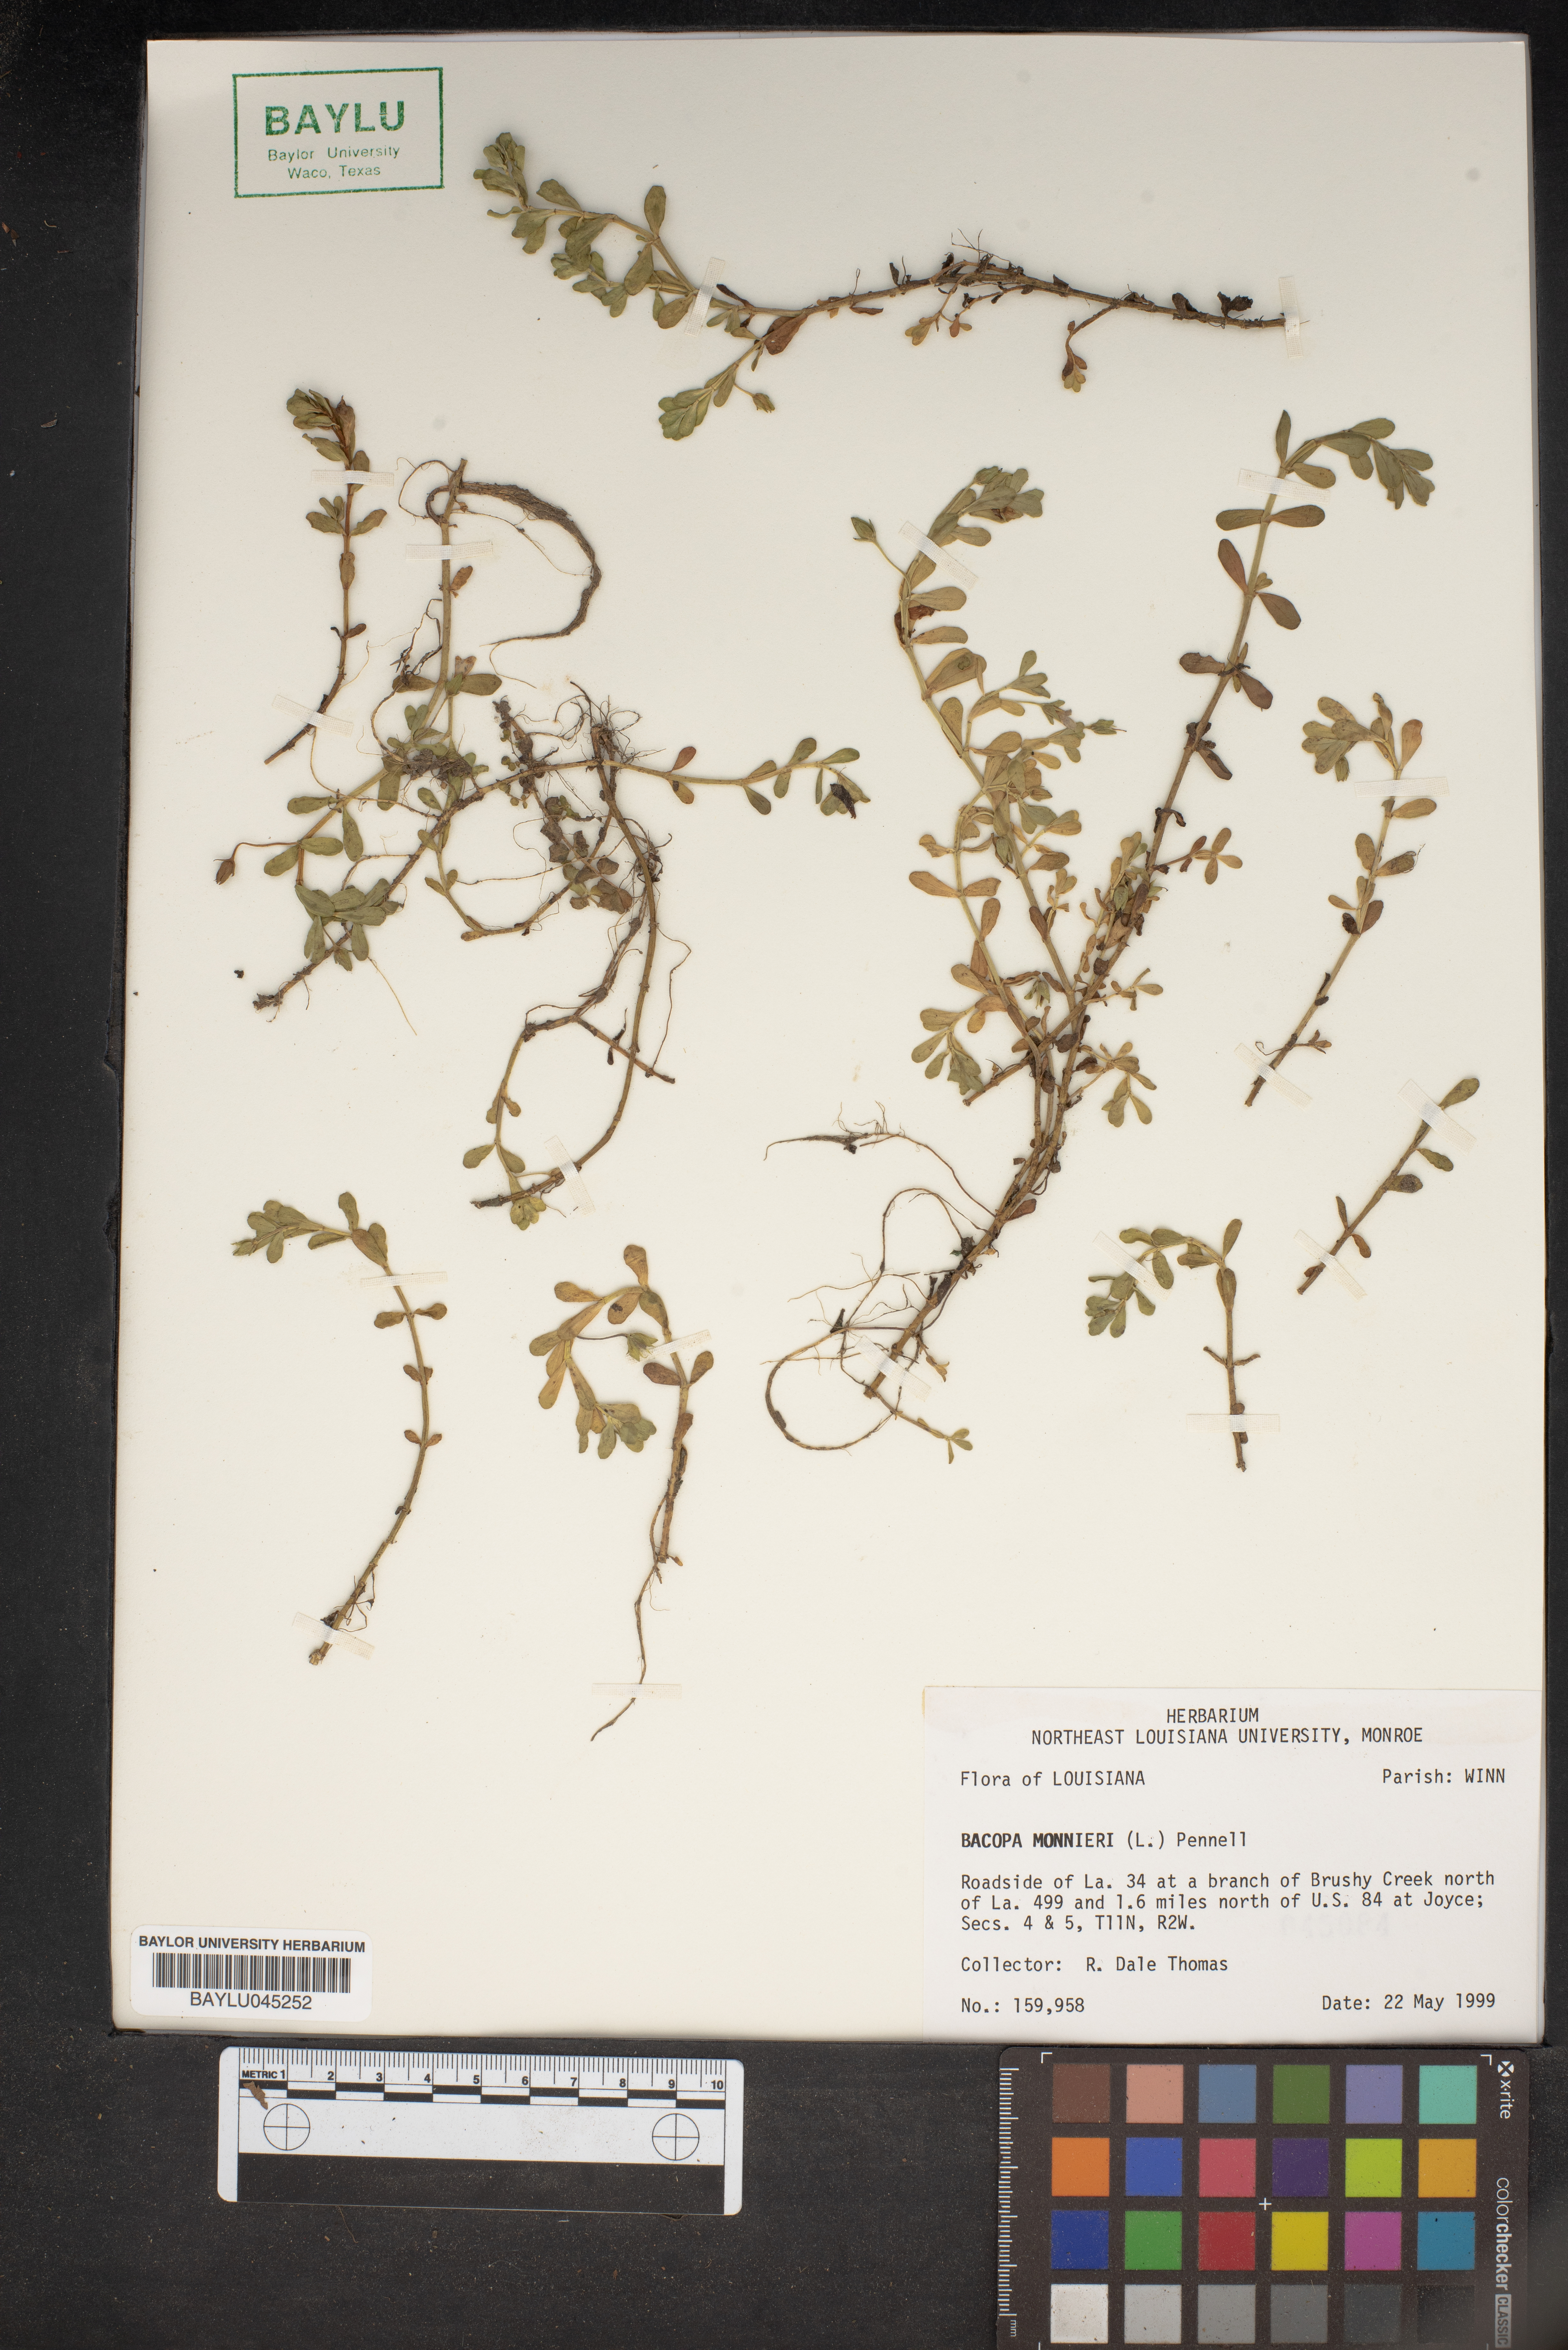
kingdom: Plantae
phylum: Tracheophyta
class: Magnoliopsida
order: Lamiales
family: Plantaginaceae
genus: Bacopa
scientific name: Bacopa monnieri
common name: Indian-pennywort
